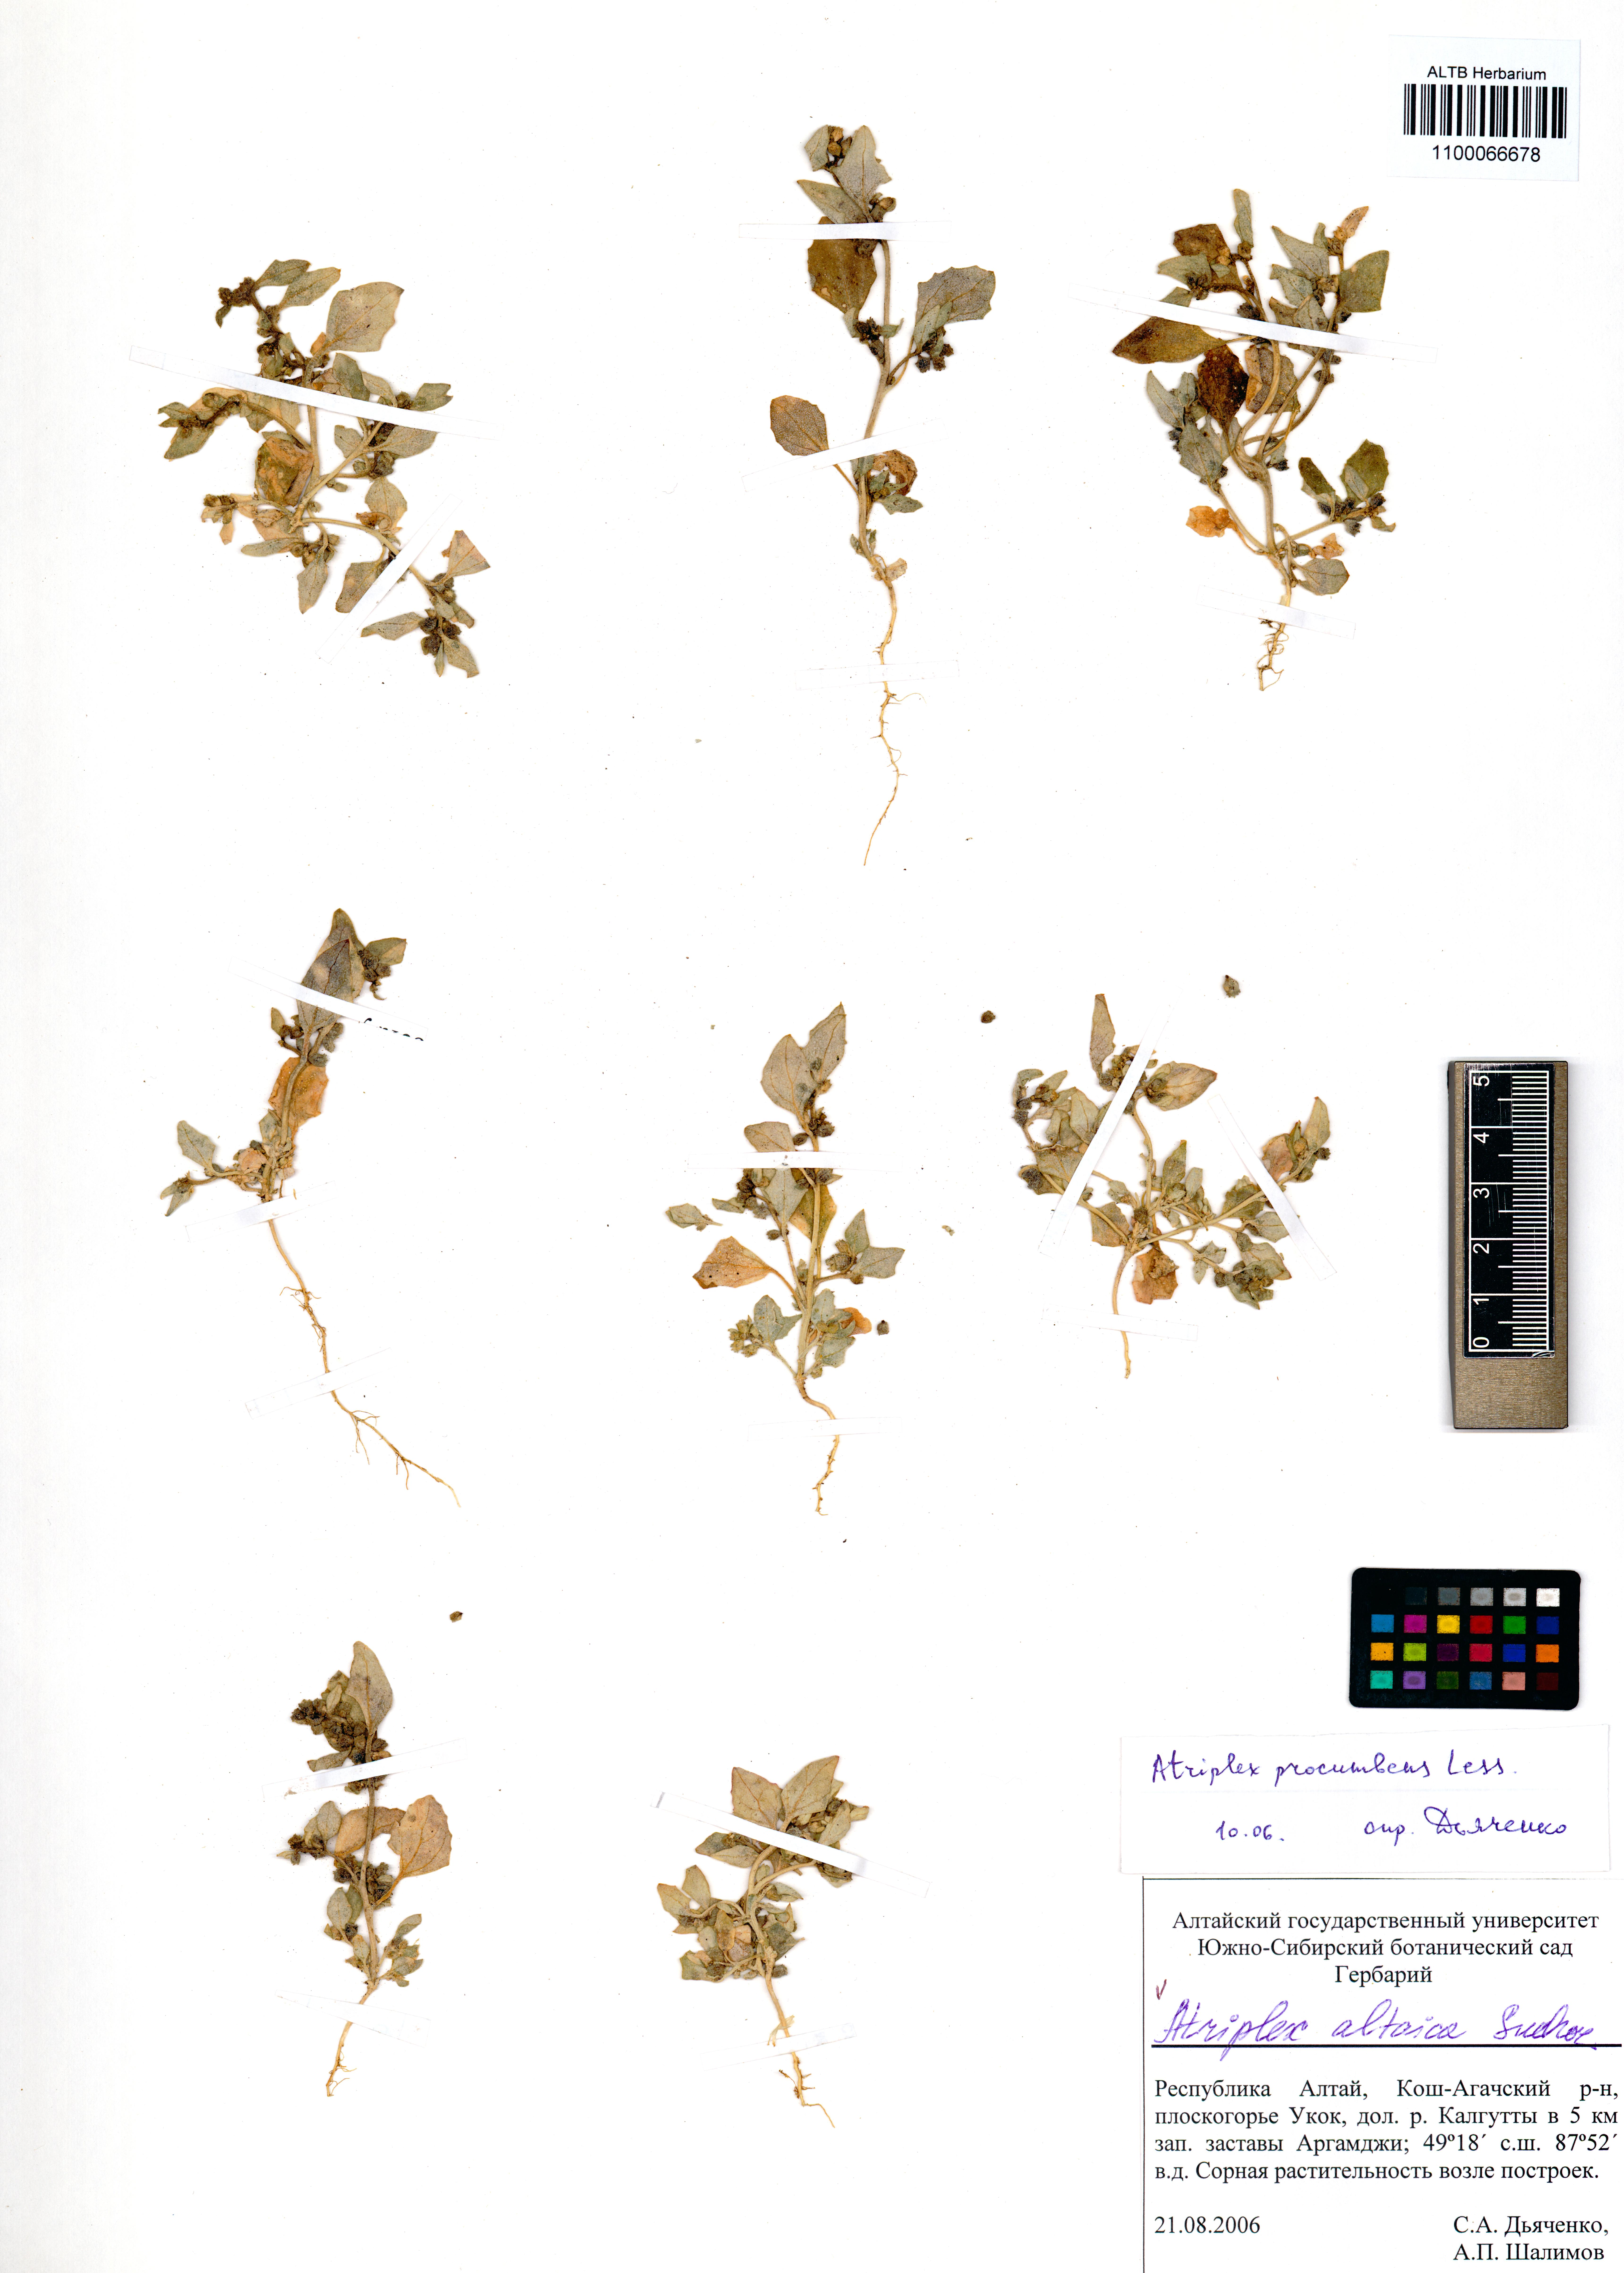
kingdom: Plantae
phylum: Tracheophyta
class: Magnoliopsida
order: Caryophyllales
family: Amaranthaceae
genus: Atriplex
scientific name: Atriplex altaica
